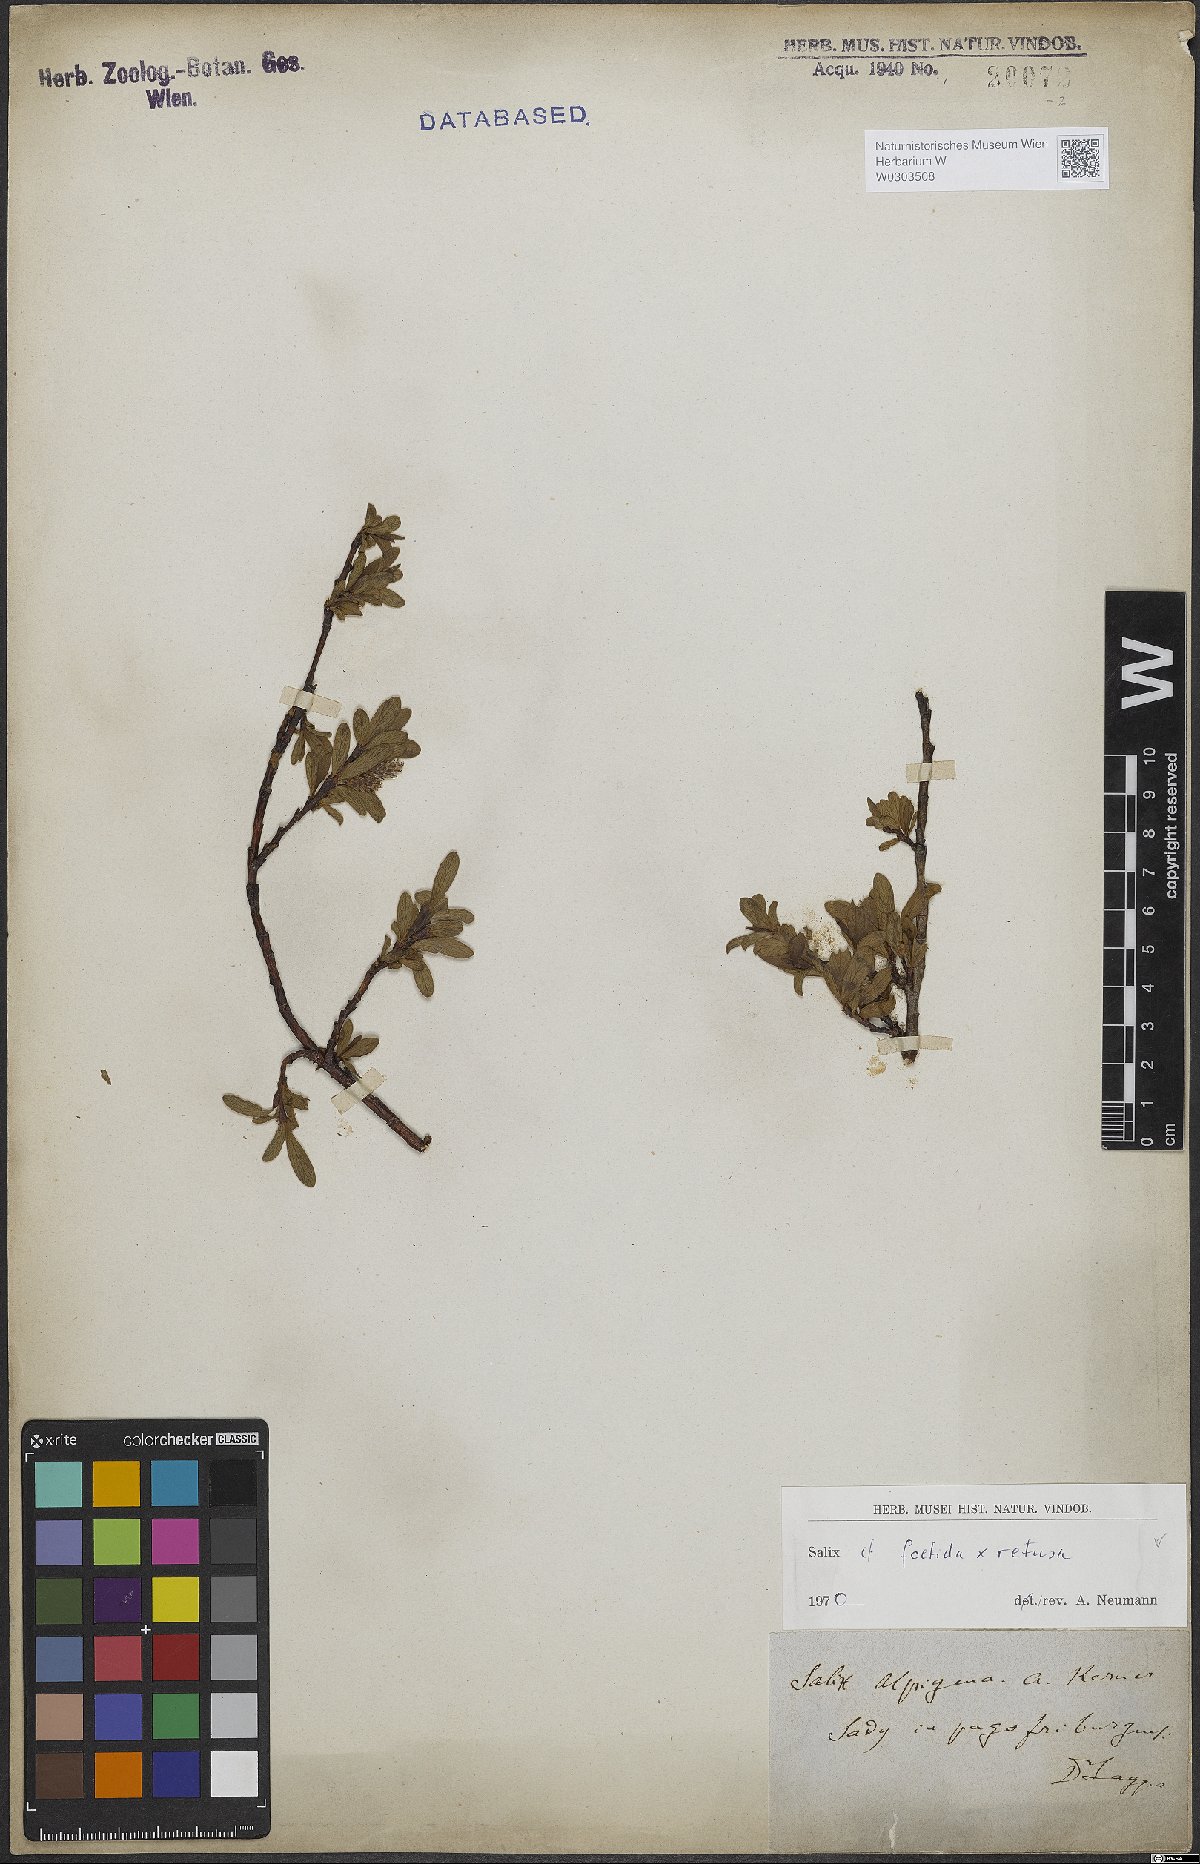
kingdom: Plantae
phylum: Tracheophyta
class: Magnoliopsida
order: Malpighiales
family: Salicaceae
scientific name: Salicaceae
